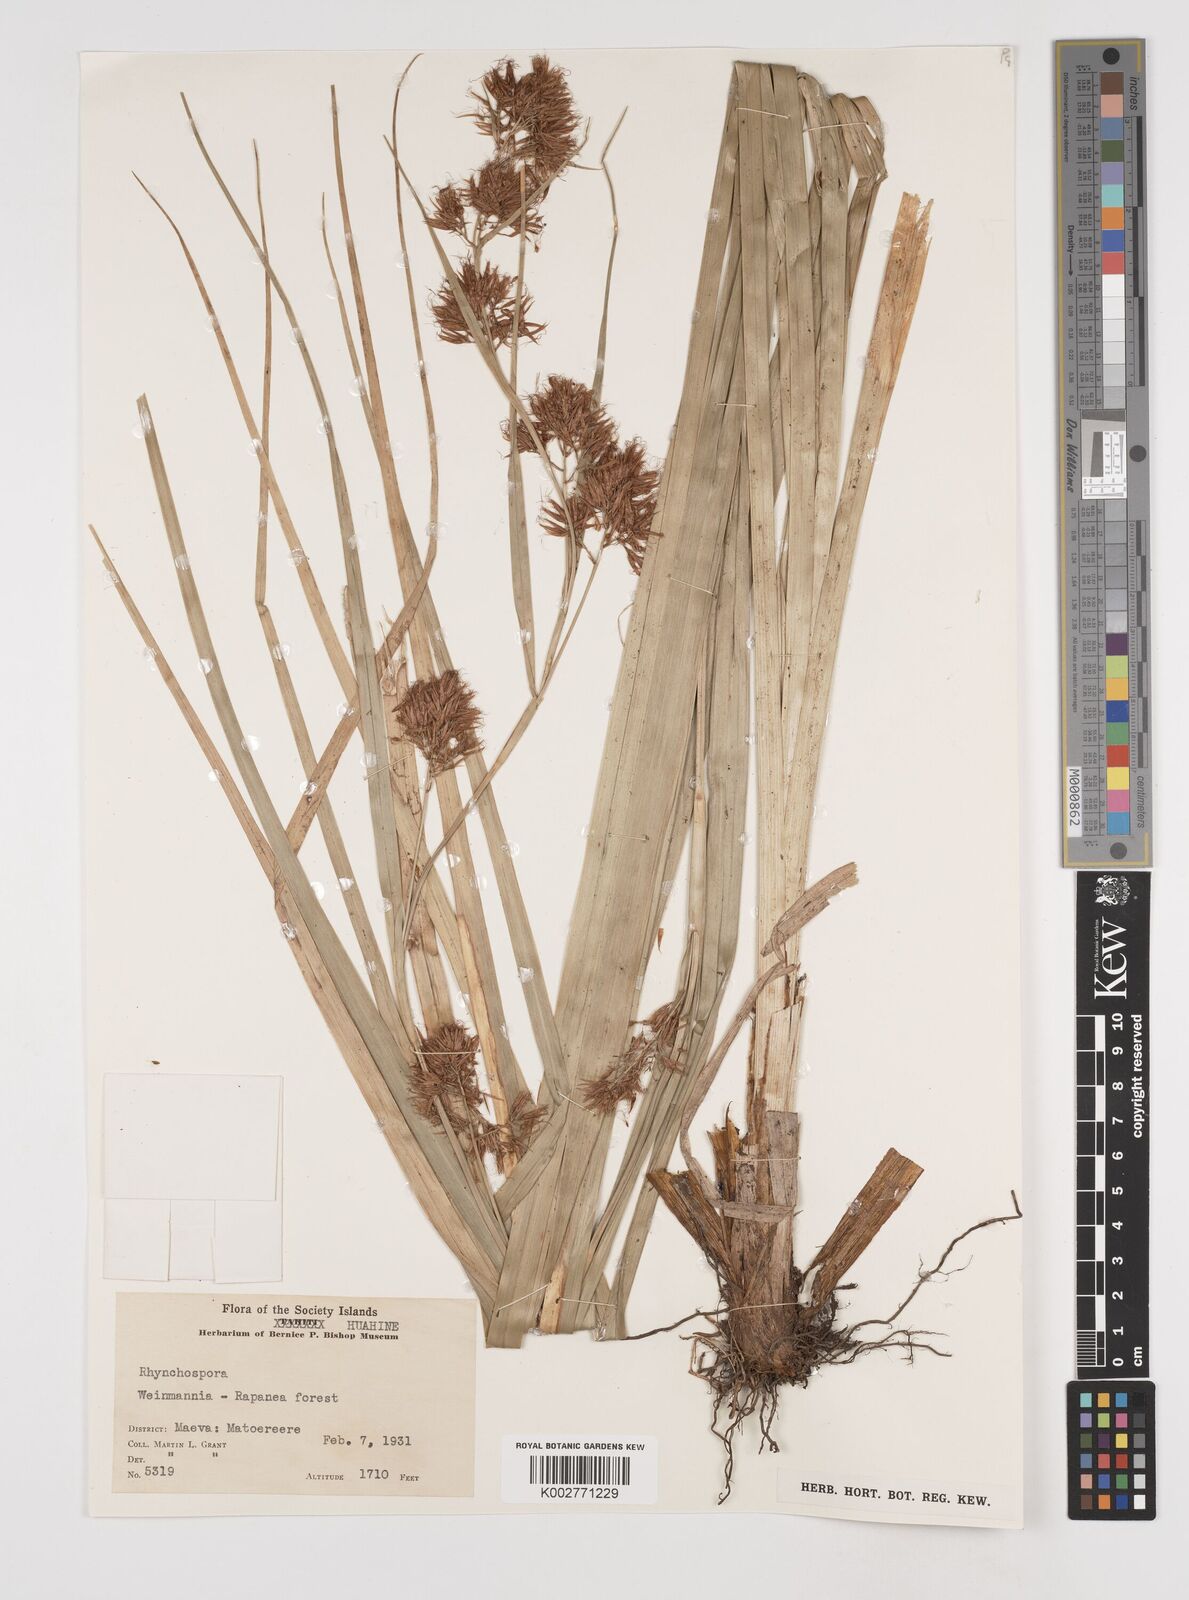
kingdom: Plantae
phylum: Tracheophyta
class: Liliopsida
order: Poales
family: Cyperaceae
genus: Rhynchospora
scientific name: Rhynchospora
